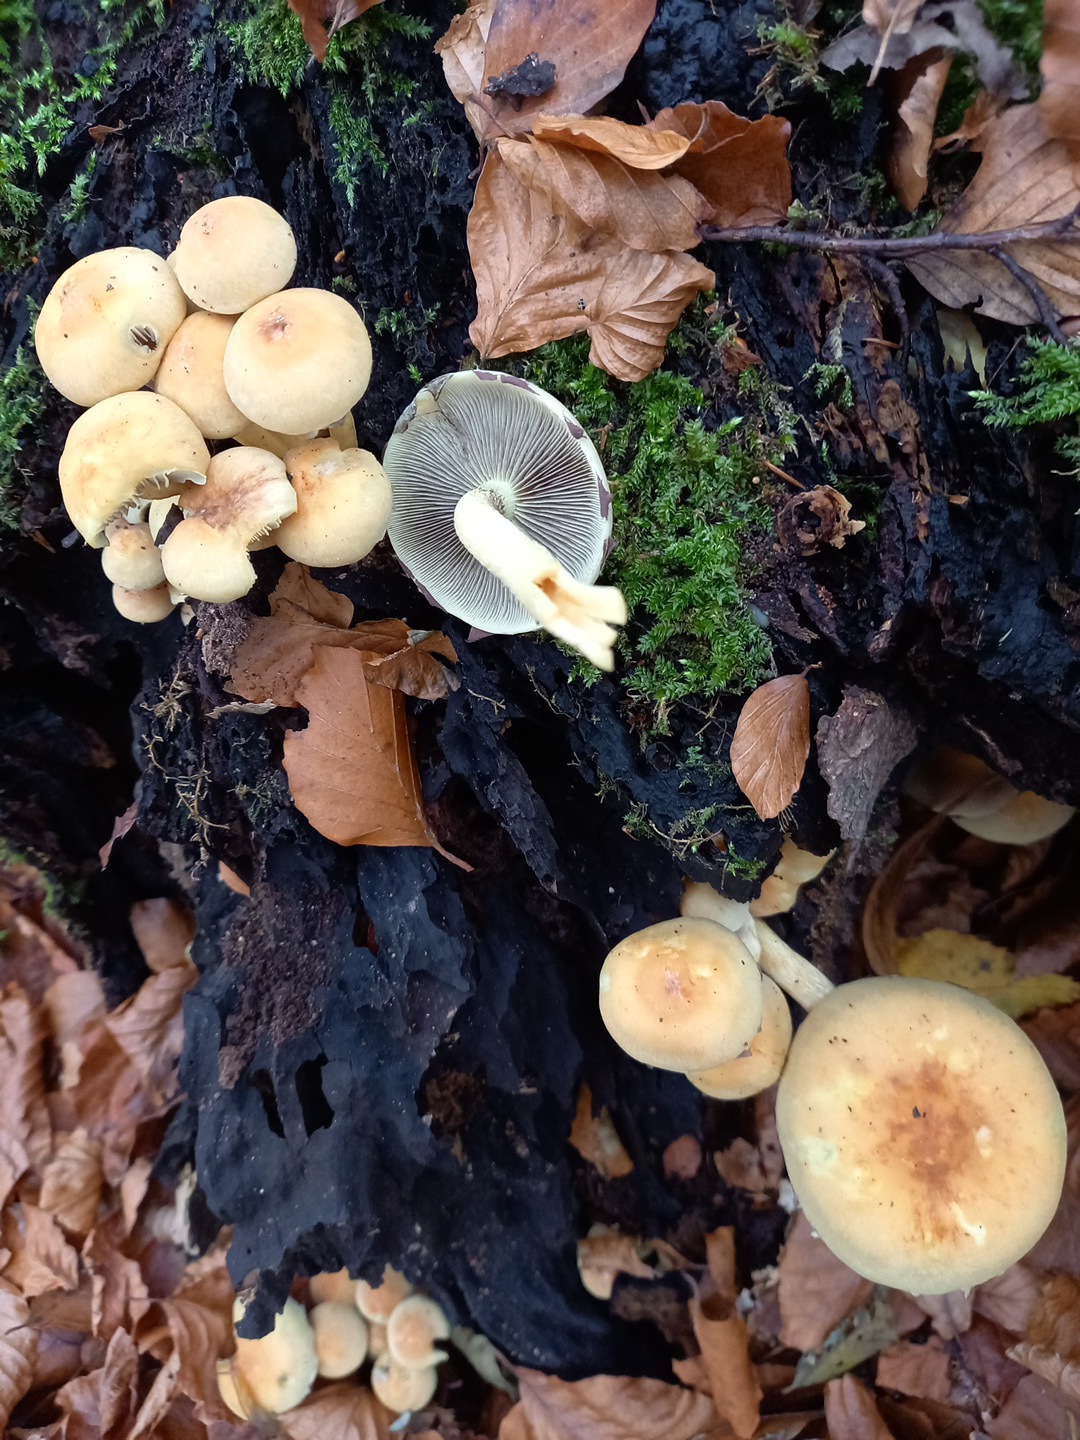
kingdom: Fungi
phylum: Basidiomycota
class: Agaricomycetes
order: Agaricales
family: Strophariaceae
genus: Hypholoma
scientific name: Hypholoma fasciculare
